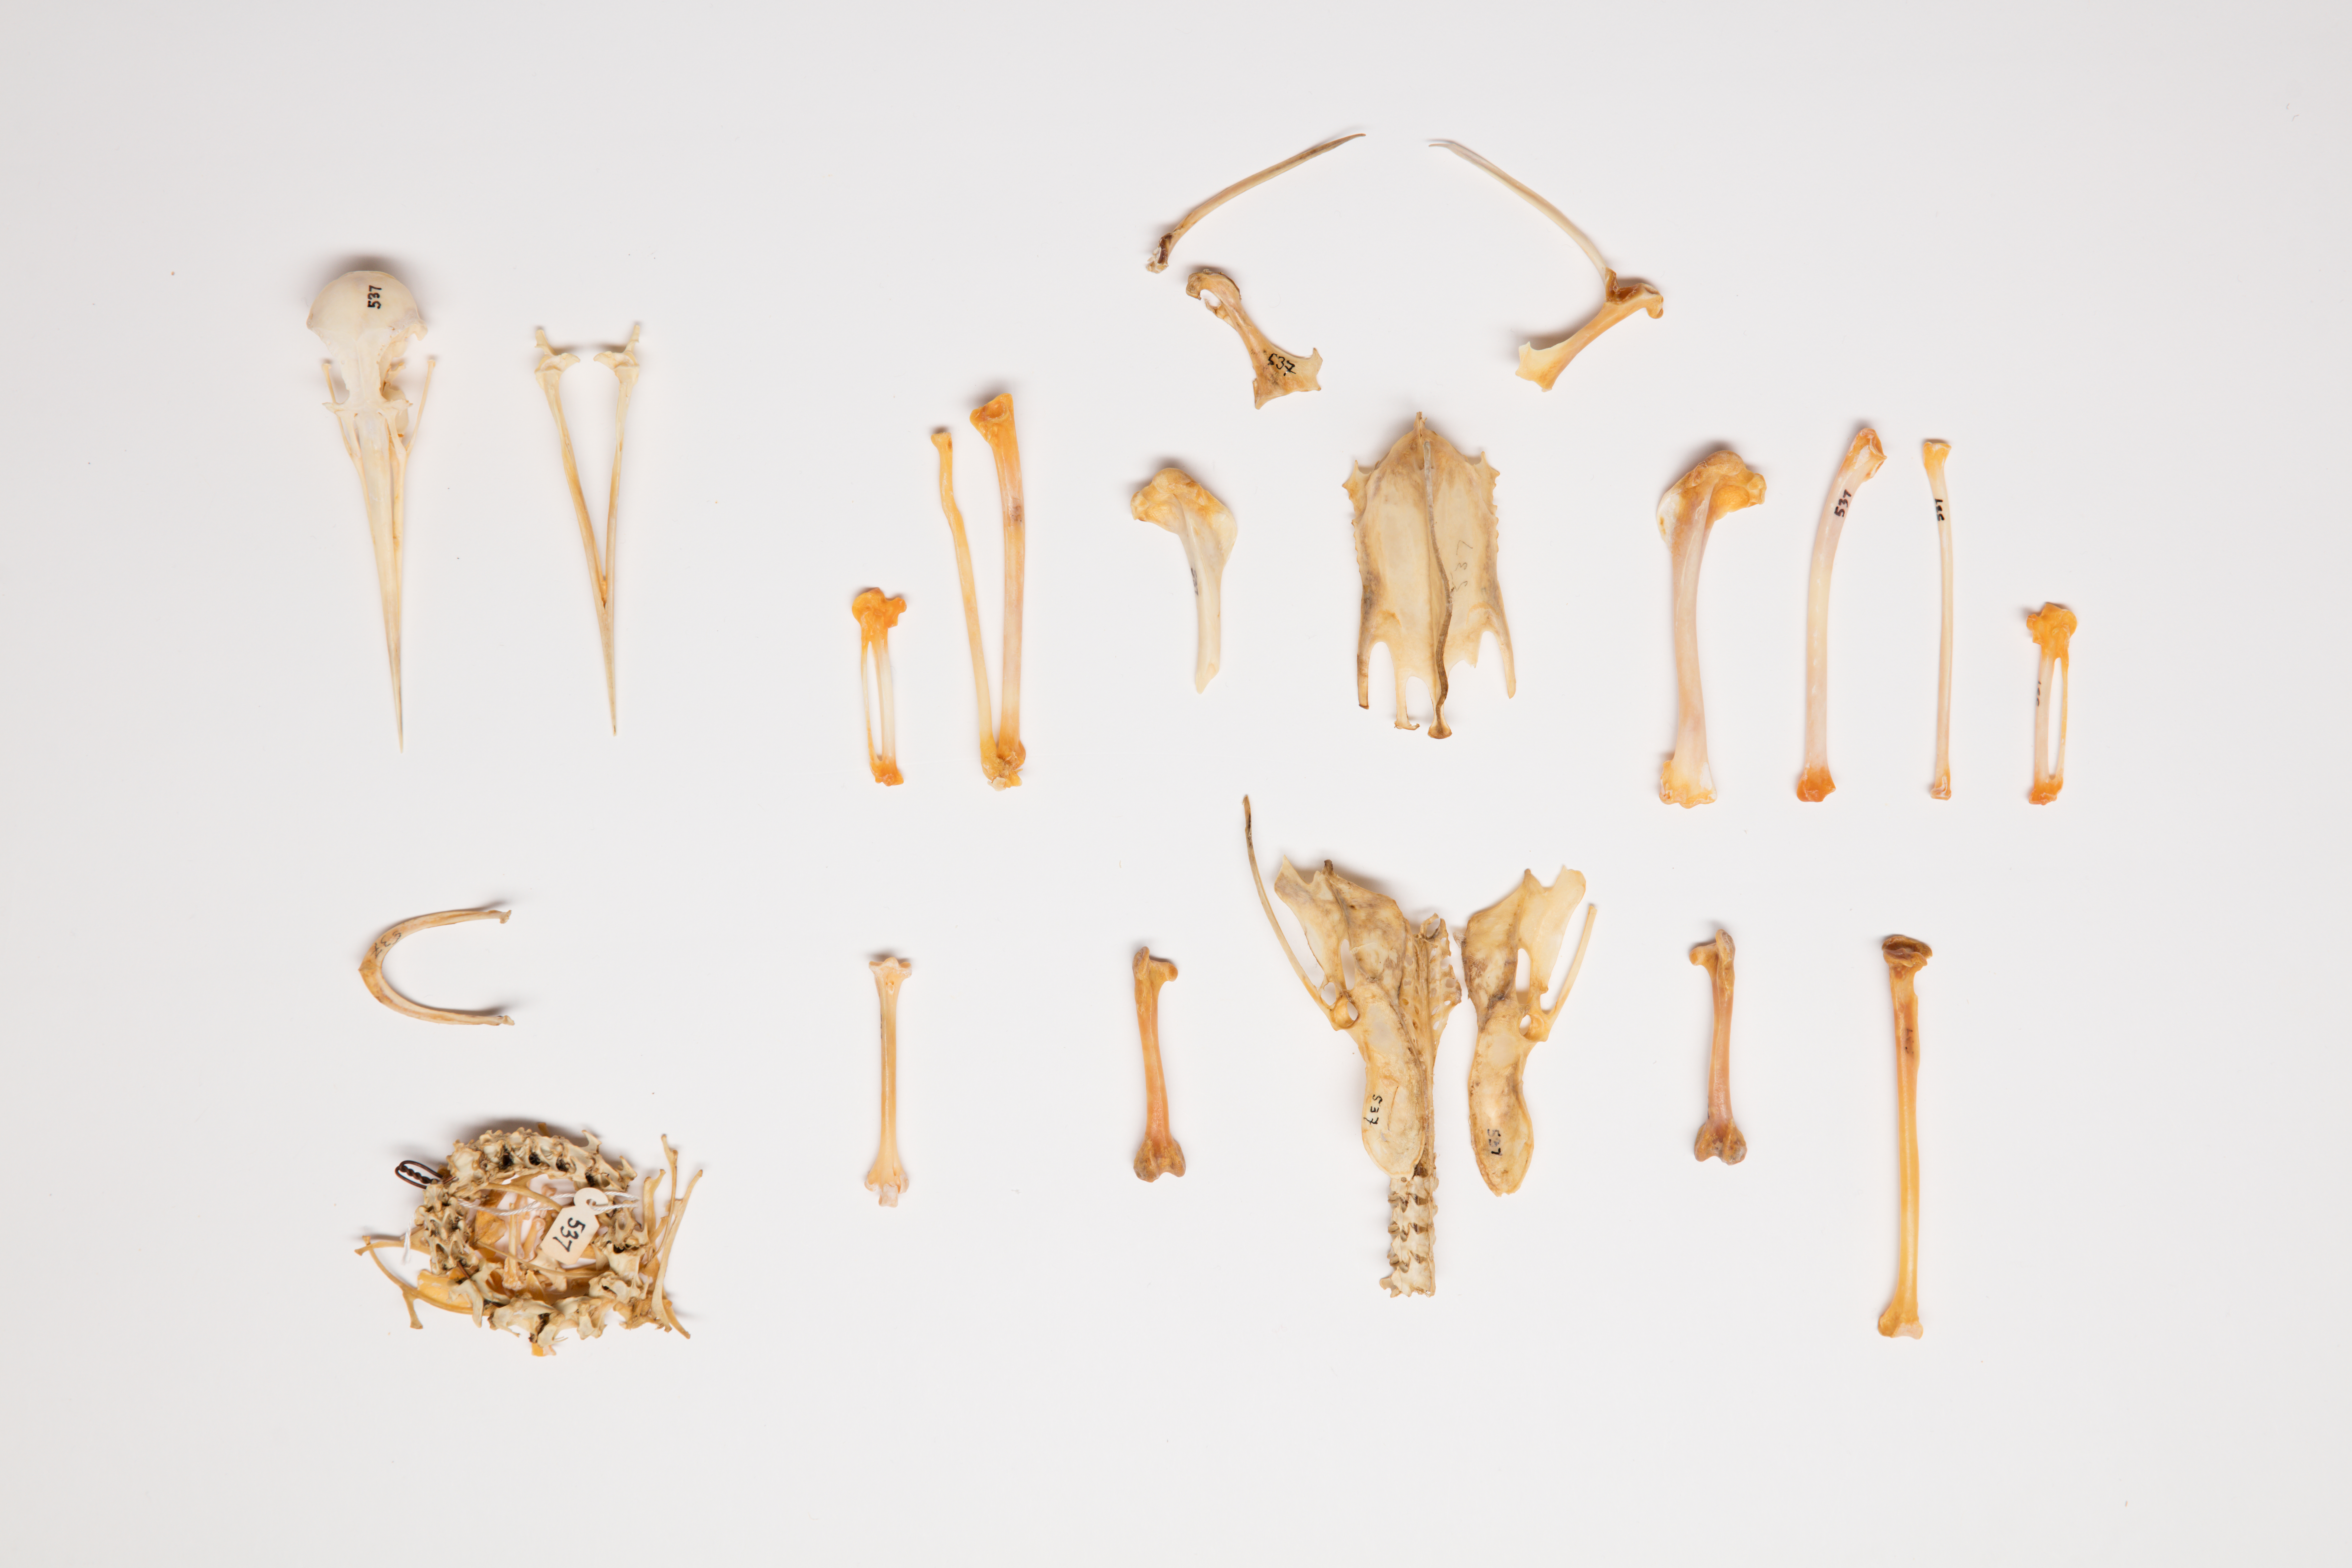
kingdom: Animalia
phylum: Chordata
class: Aves
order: Charadriiformes
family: Haematopodidae
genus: Haematopus
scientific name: Haematopus unicolor
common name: Variable oystercatcher
